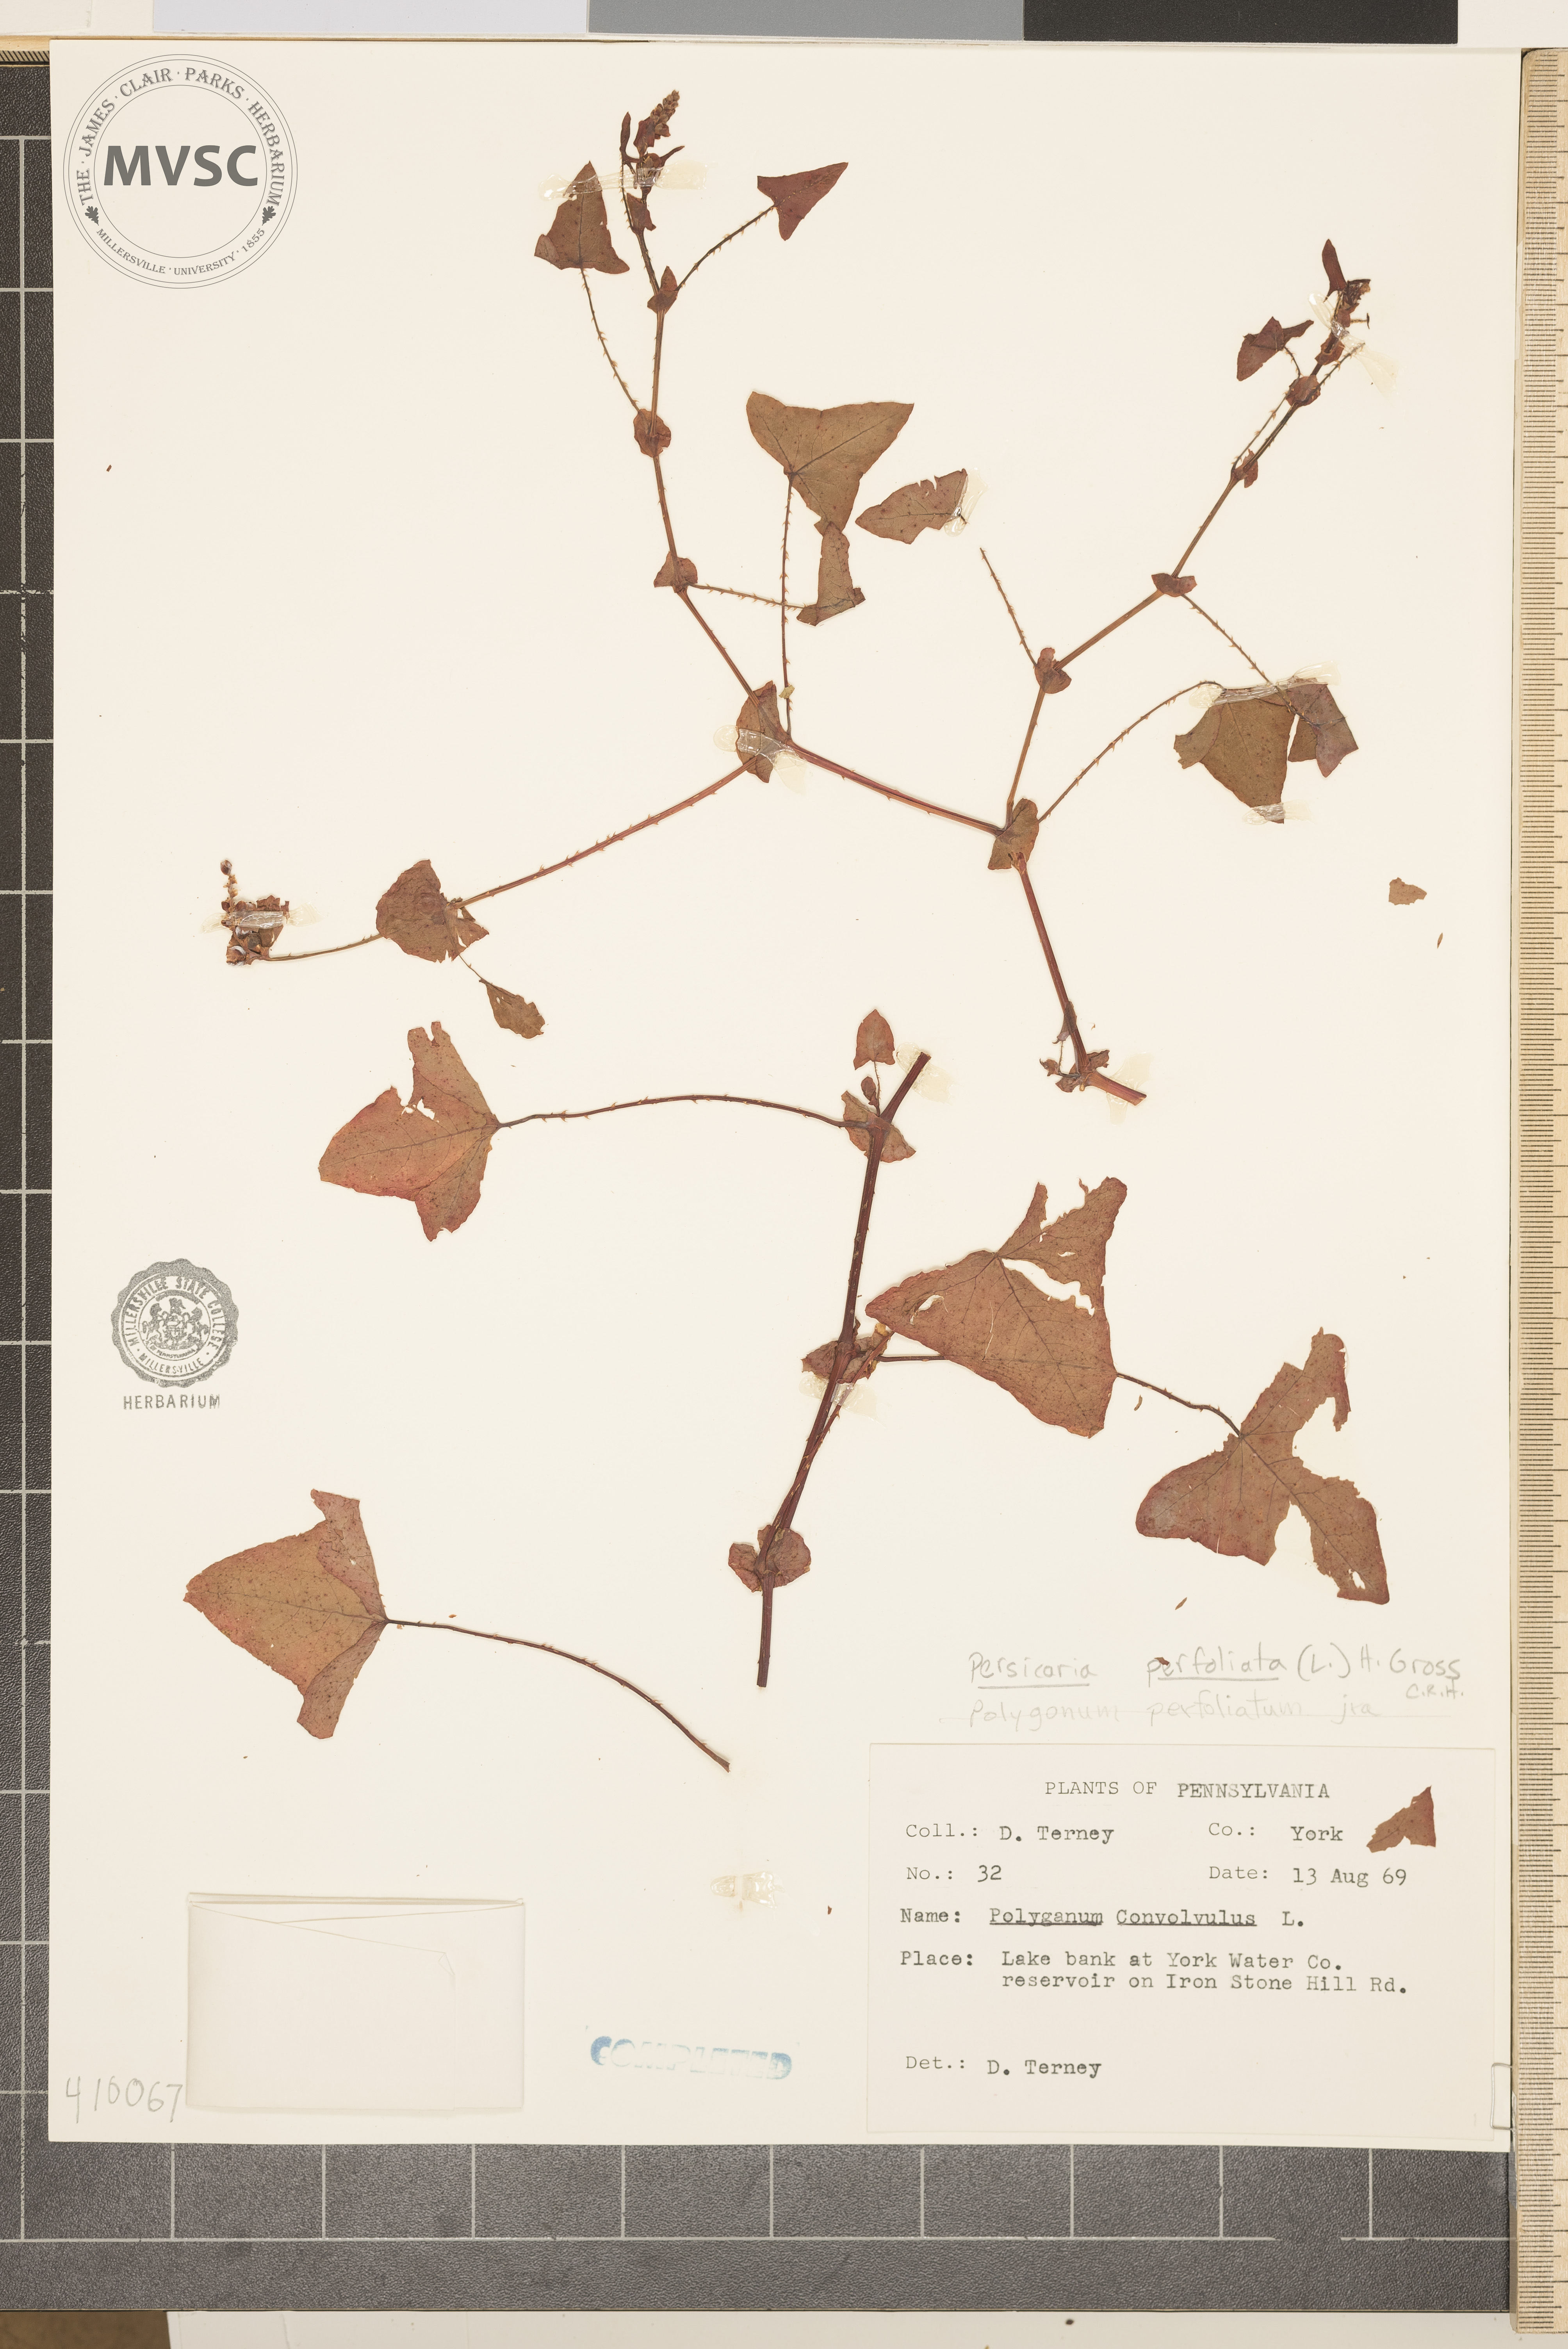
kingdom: Plantae
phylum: Tracheophyta
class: Magnoliopsida
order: Caryophyllales
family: Polygonaceae
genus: Persicaria
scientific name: Persicaria perfoliata
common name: mile-a-minute
